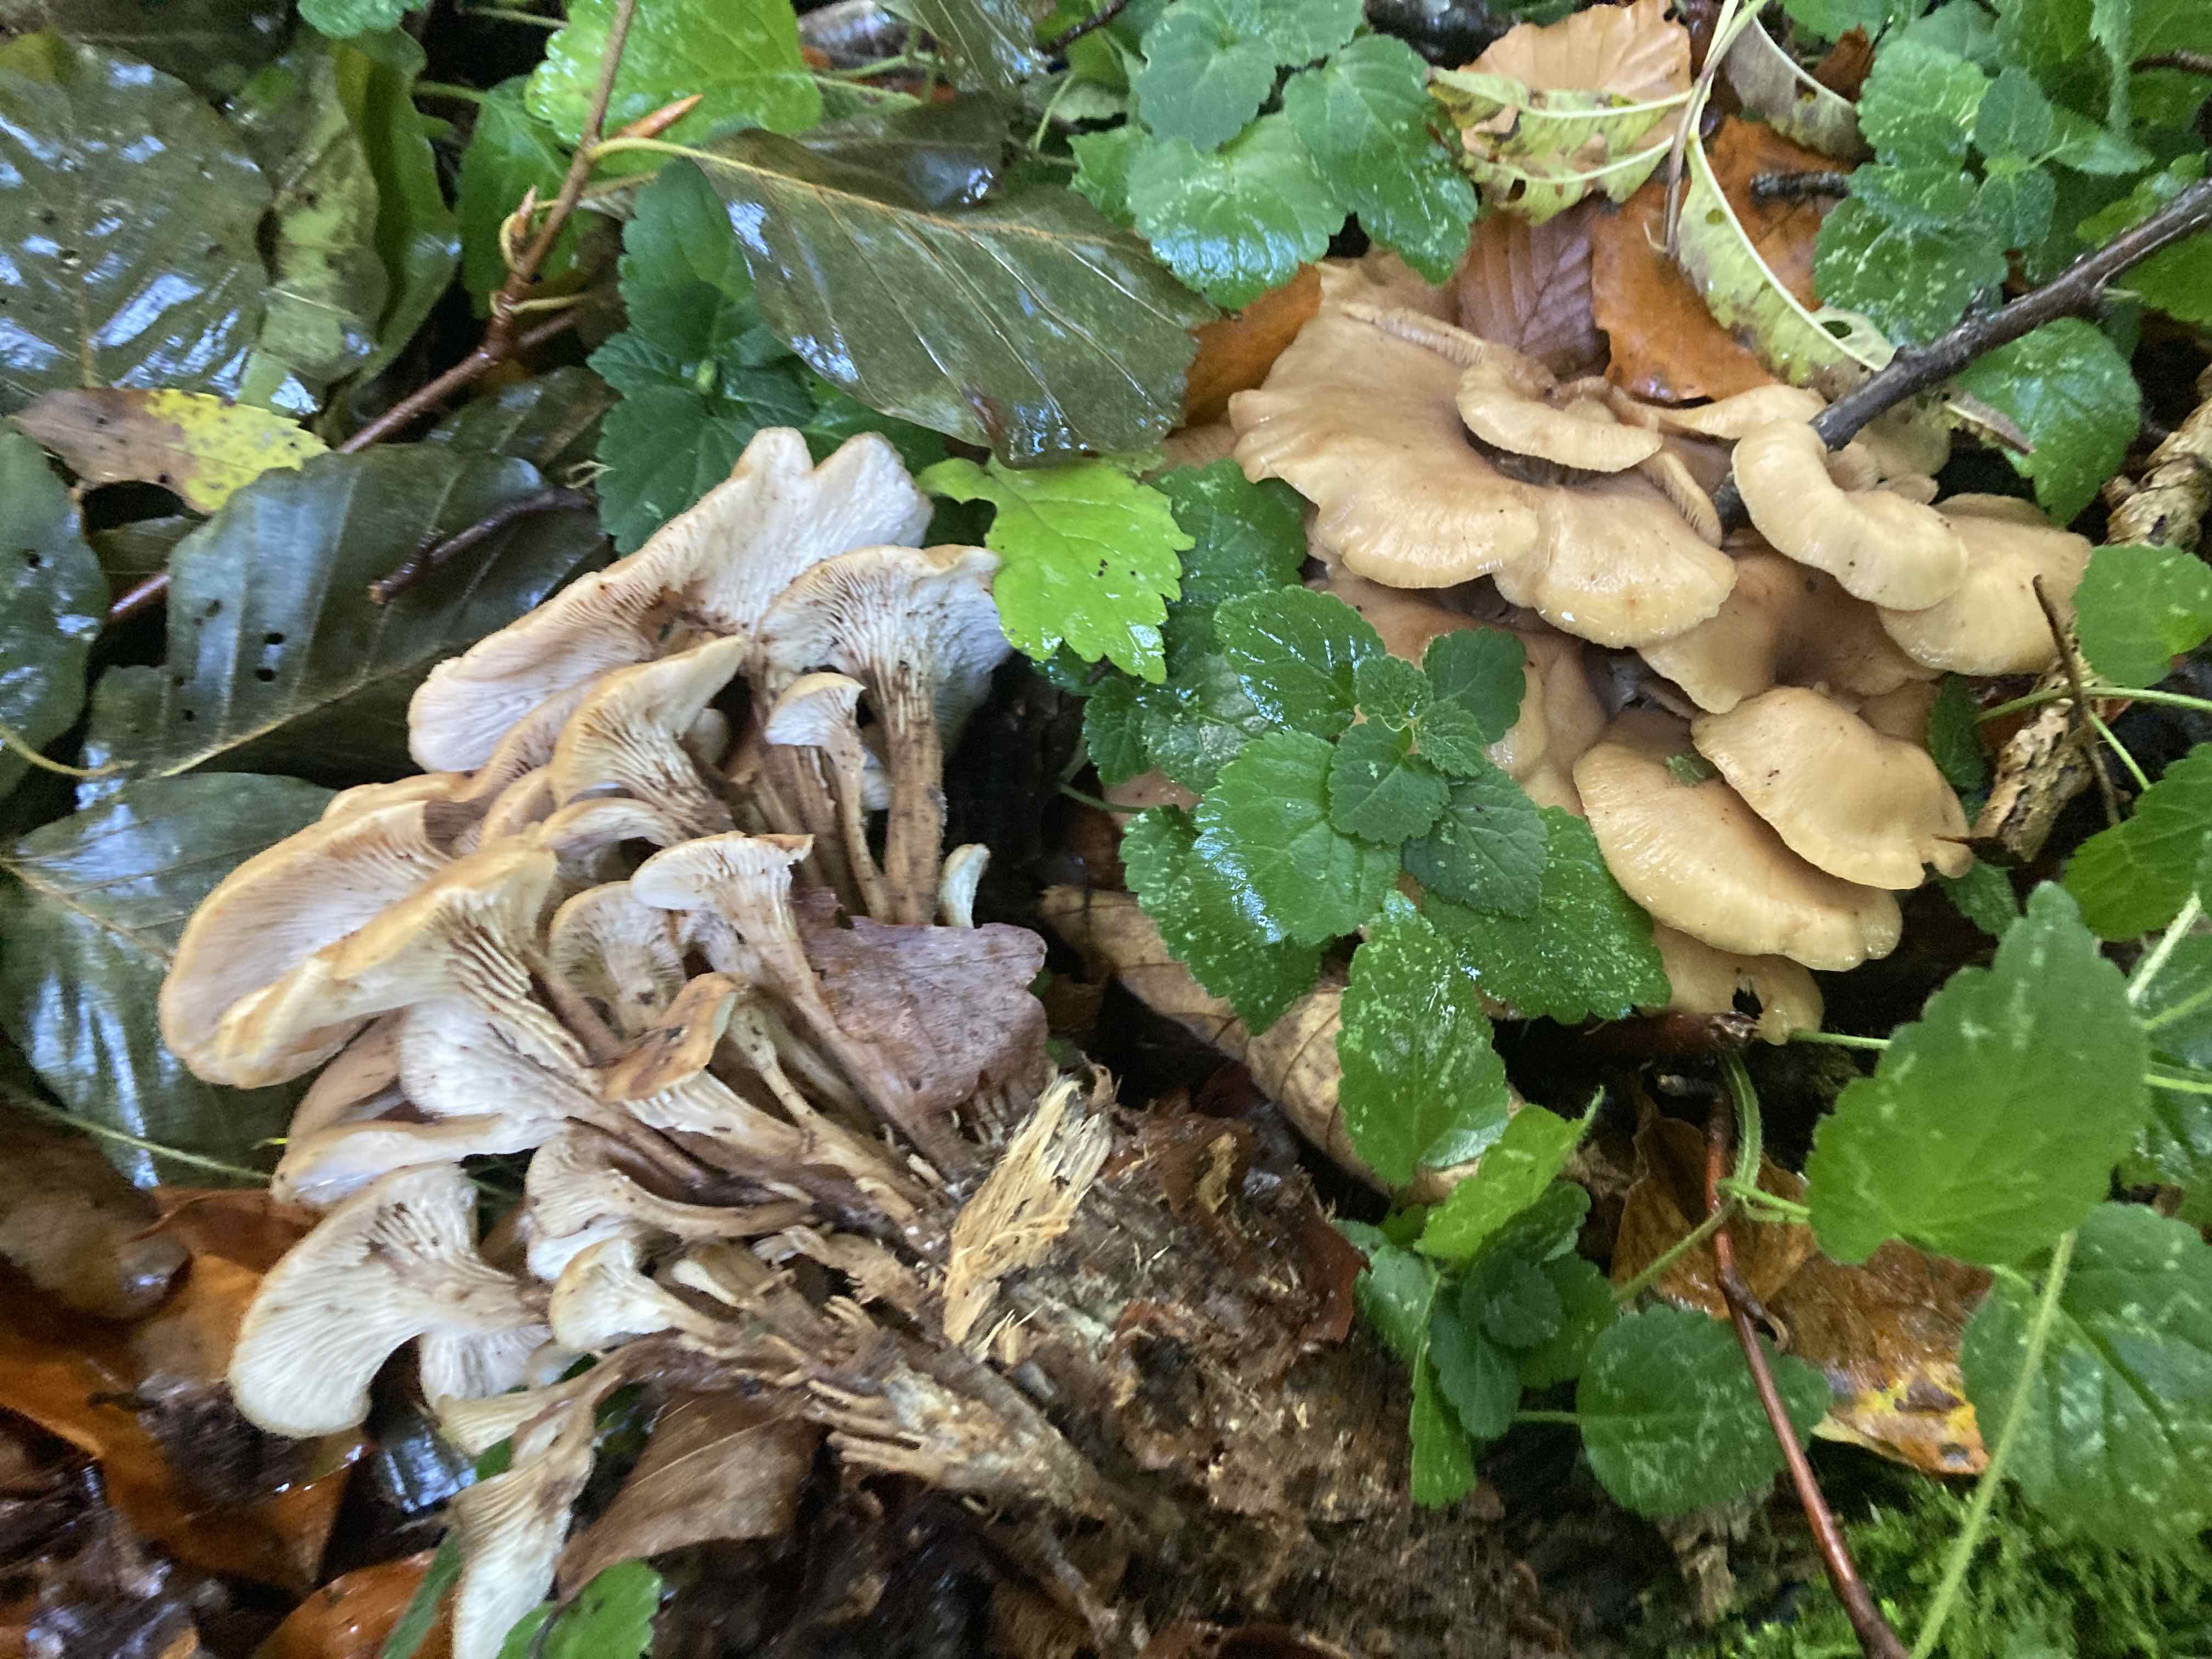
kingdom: Fungi
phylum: Basidiomycota
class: Agaricomycetes
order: Russulales
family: Auriscalpiaceae
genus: Lentinellus
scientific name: Lentinellus cochleatus
